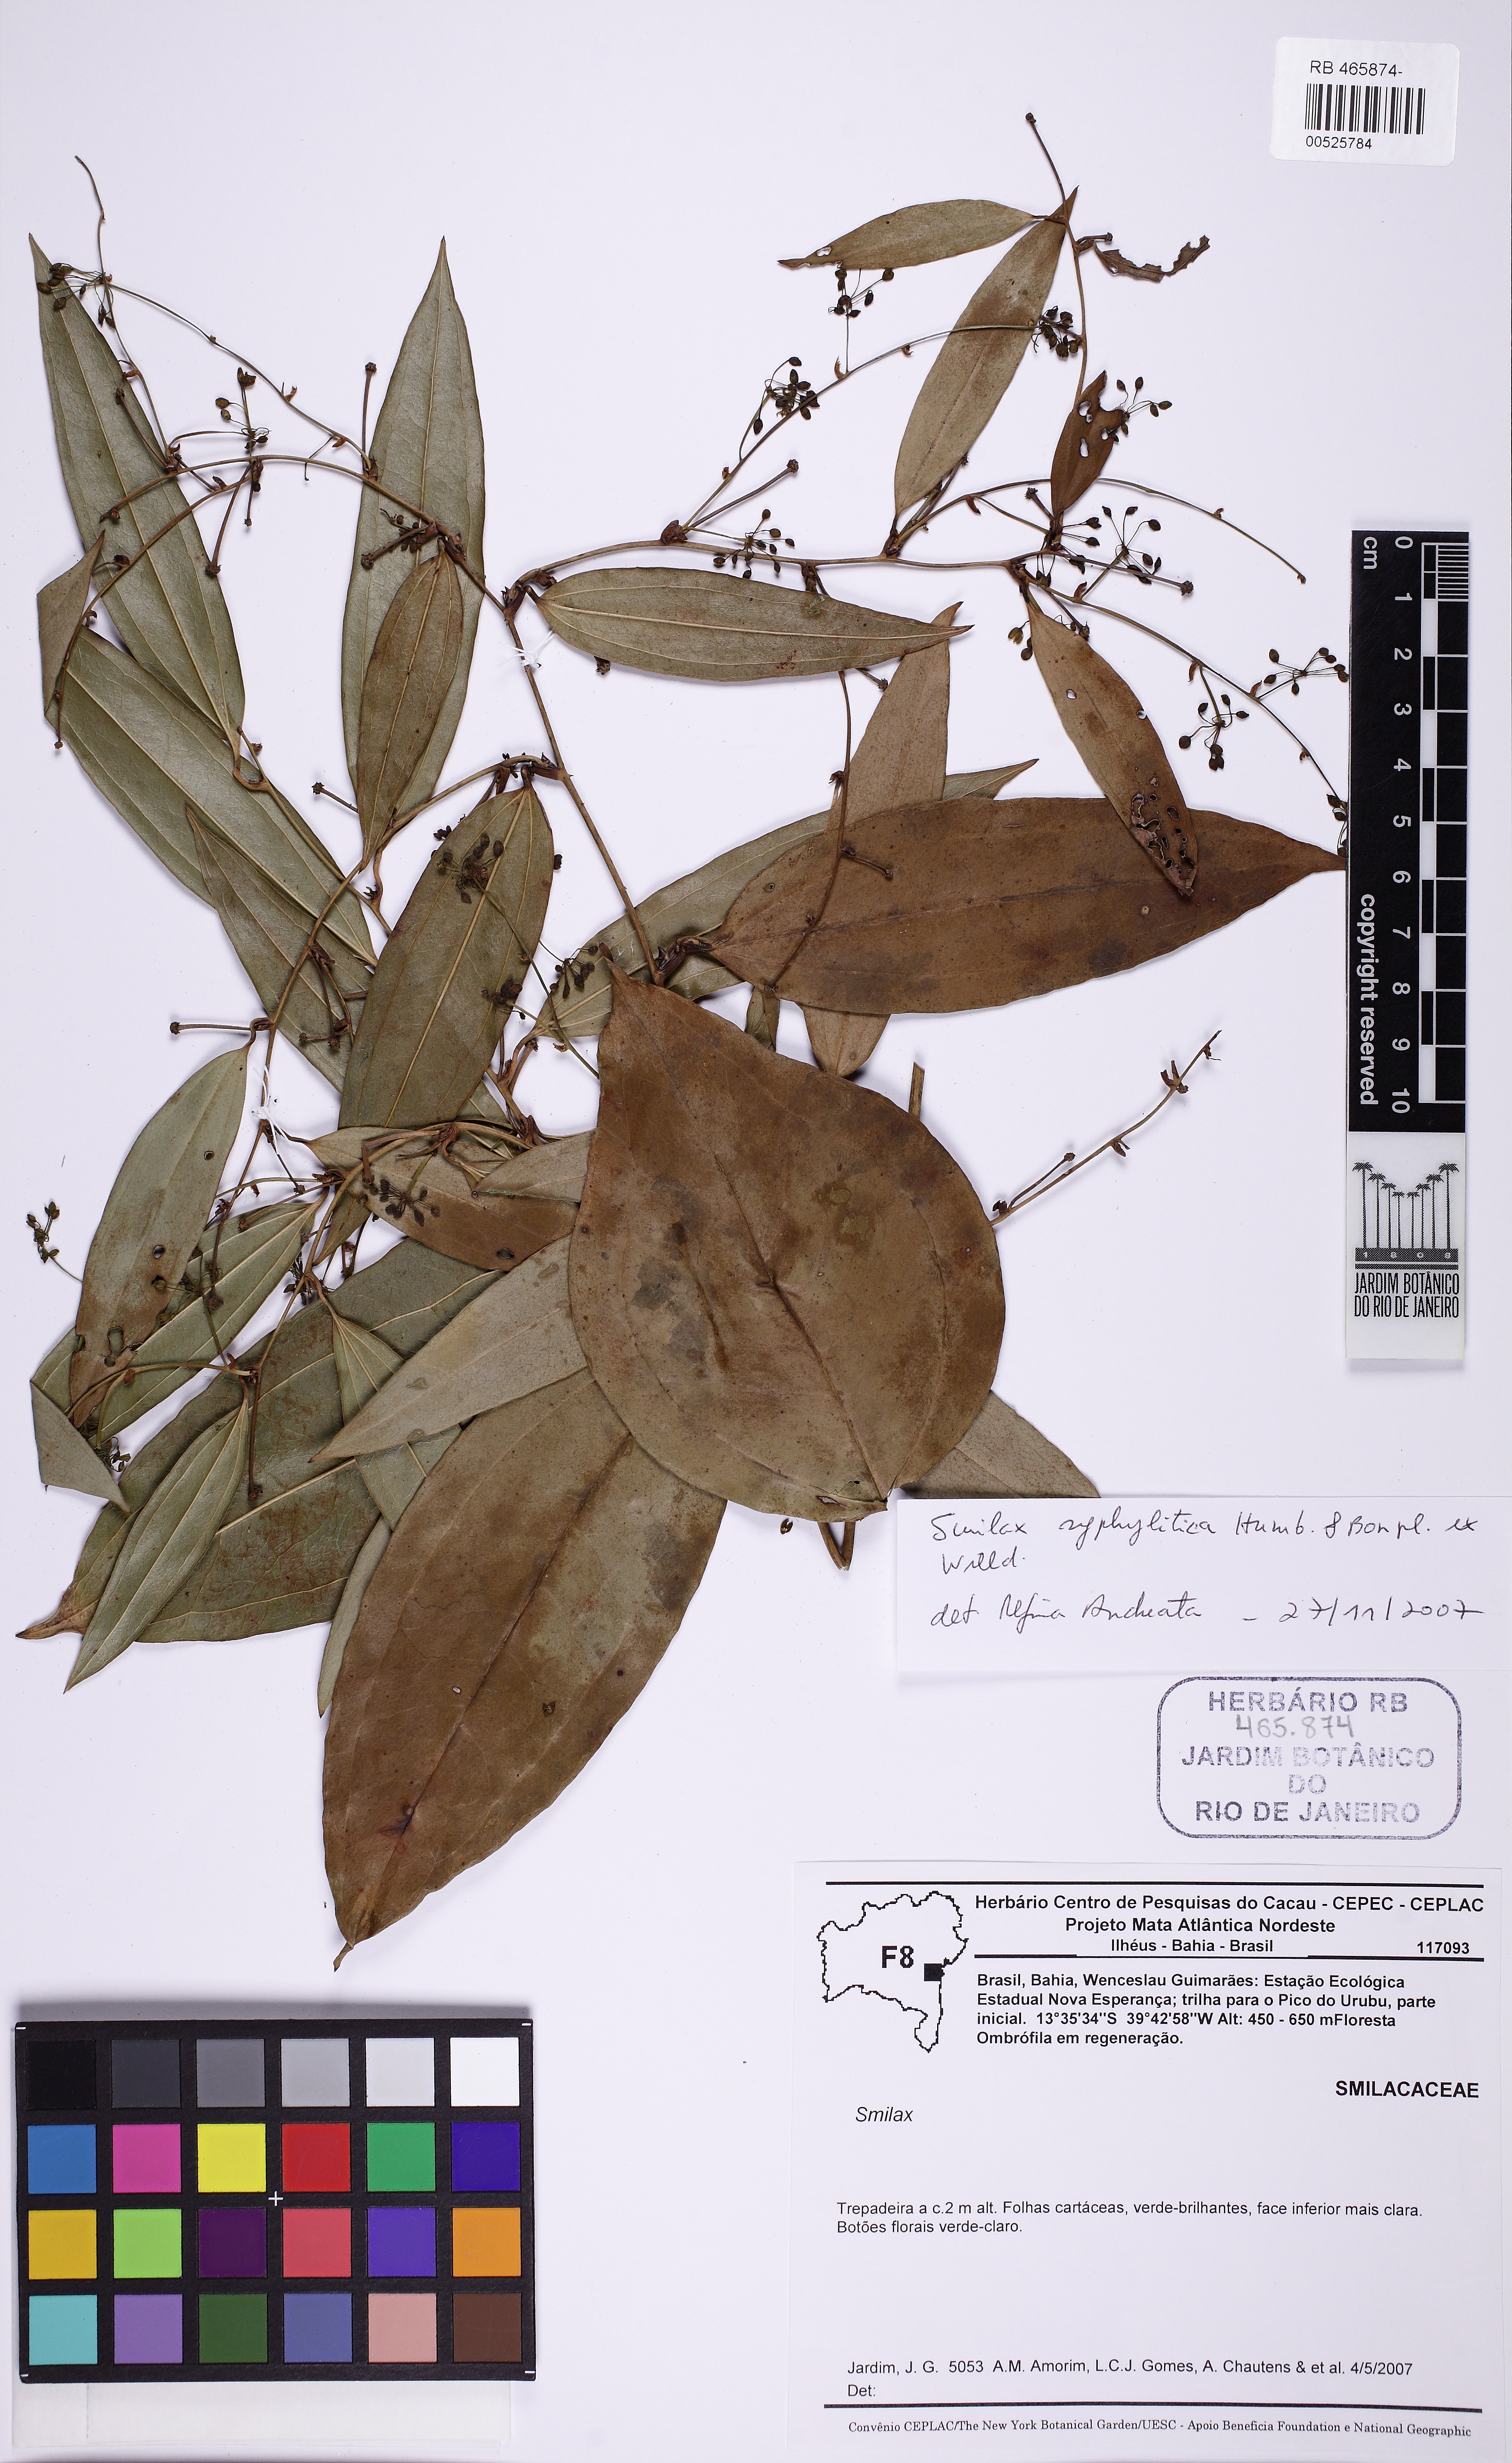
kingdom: Plantae
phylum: Tracheophyta
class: Liliopsida
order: Liliales
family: Smilacaceae
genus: Smilax
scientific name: Smilax siphilitica
